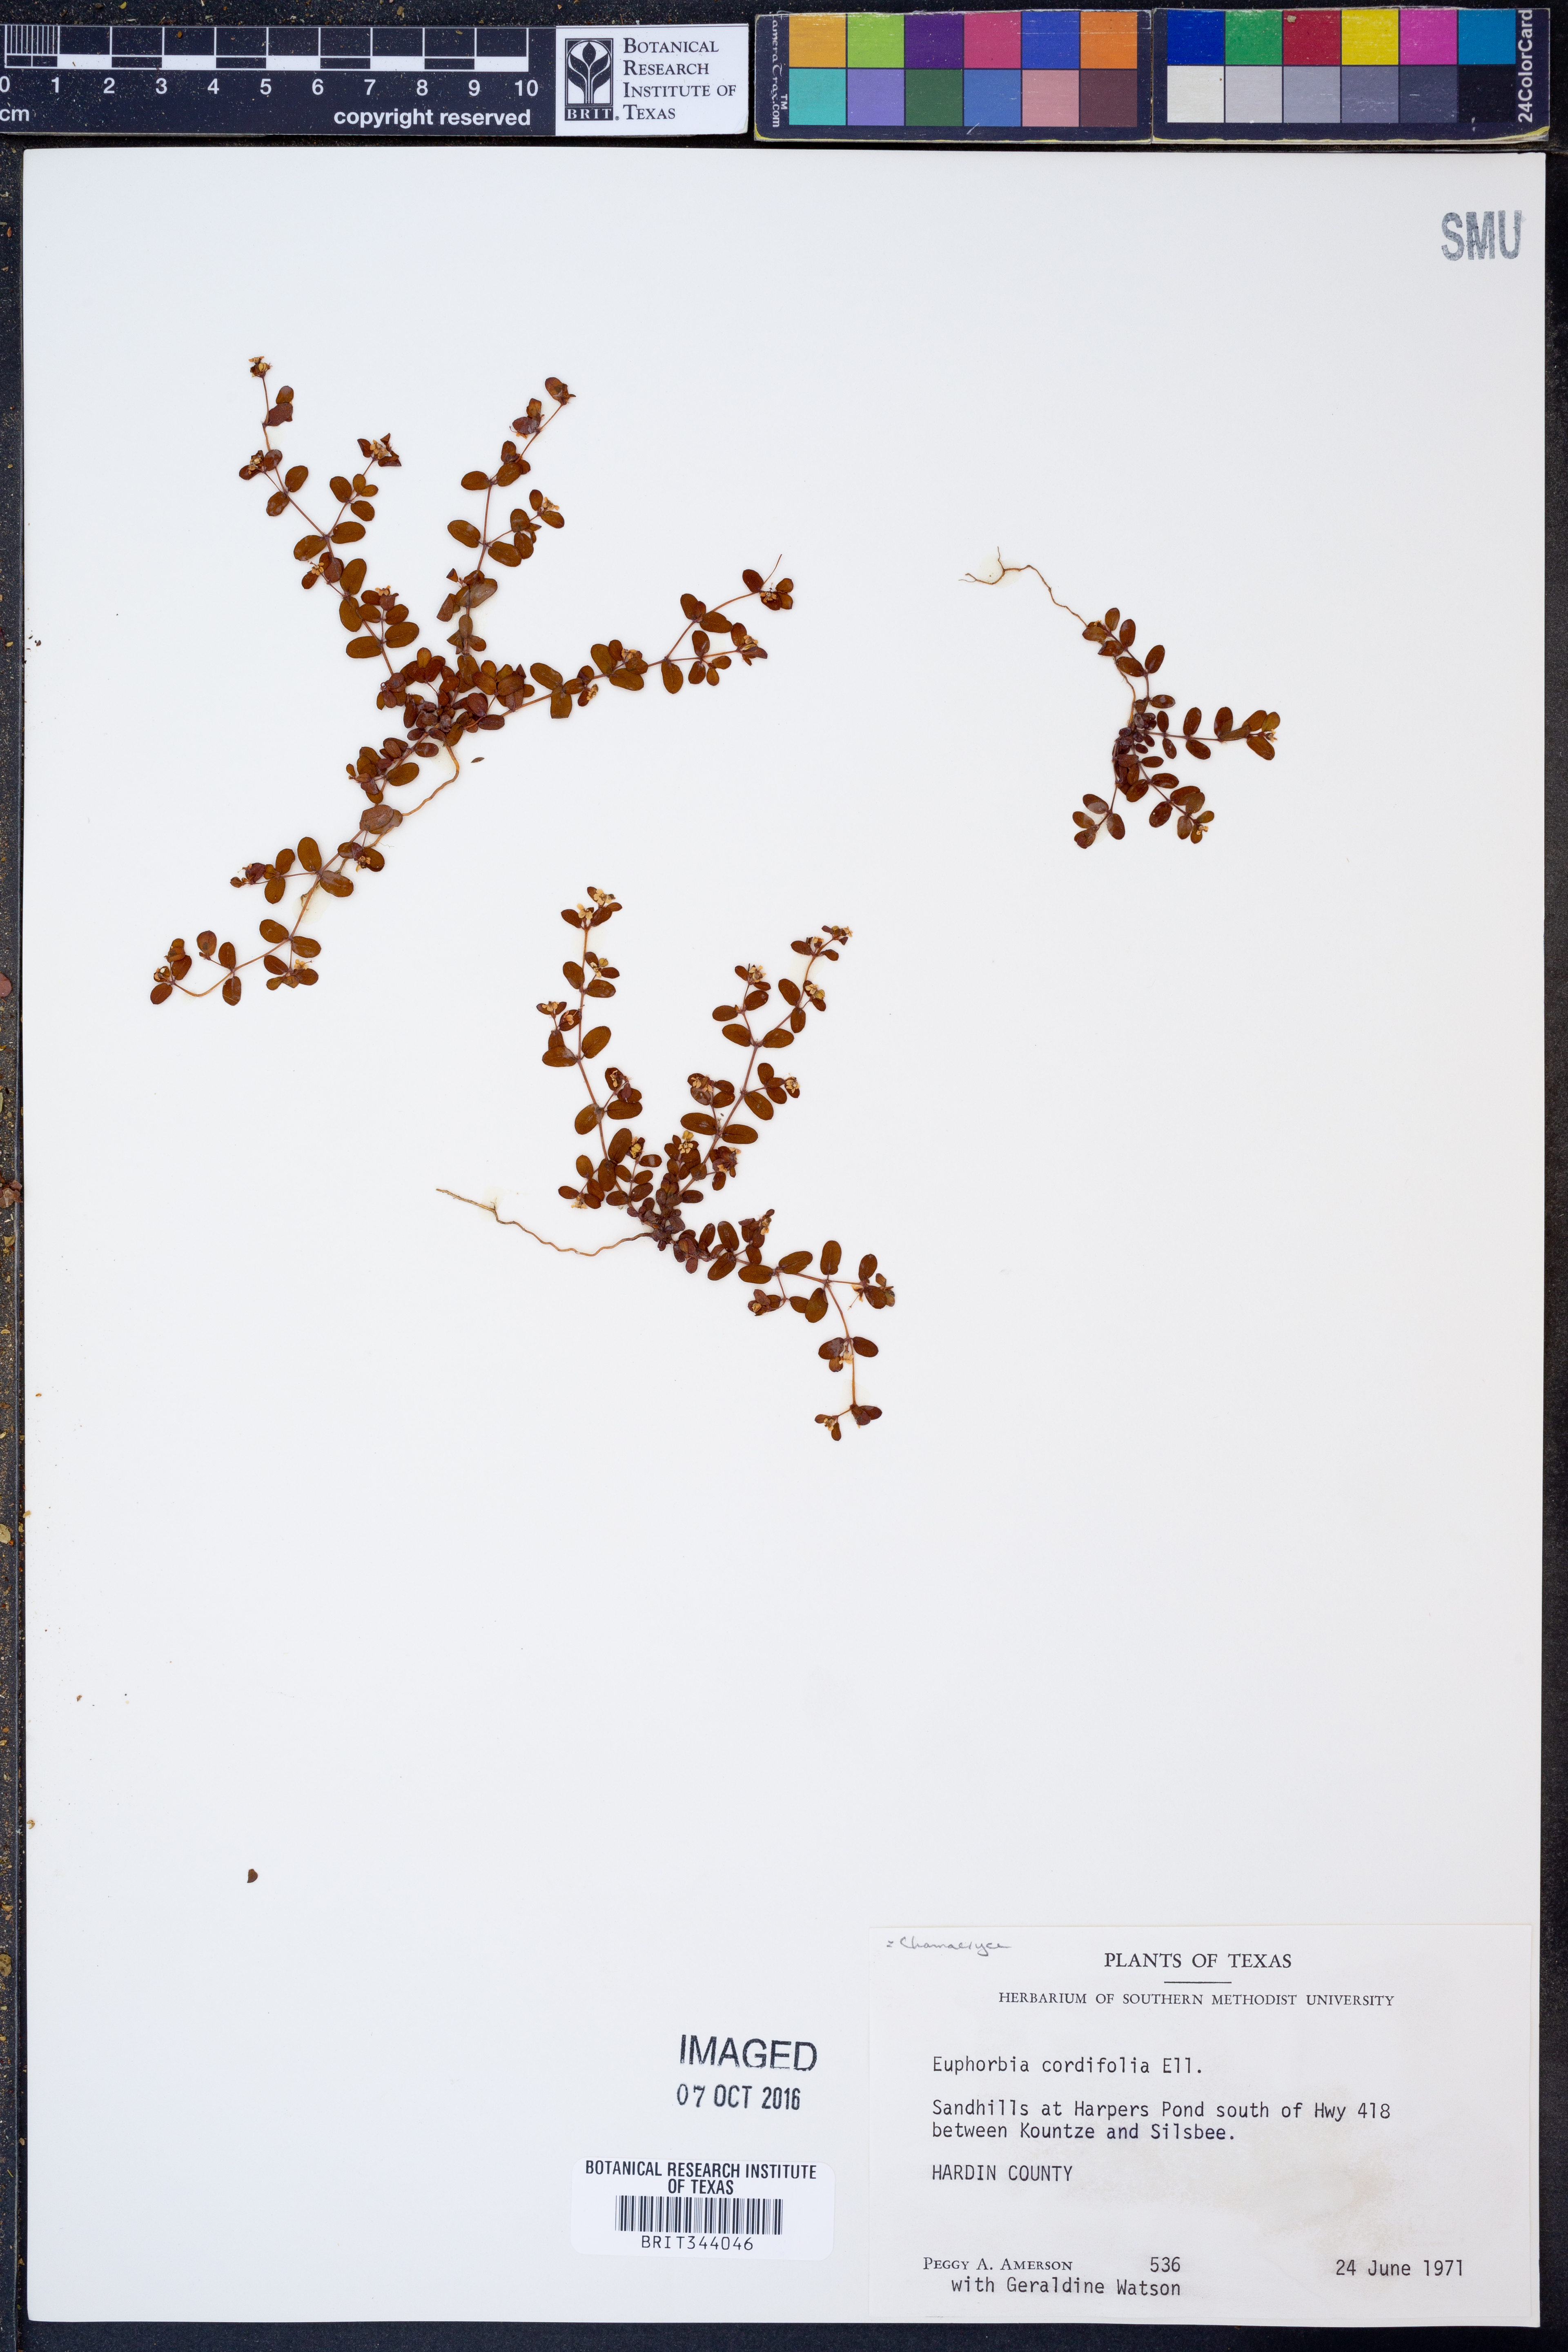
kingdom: Plantae
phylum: Tracheophyta
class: Magnoliopsida
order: Malpighiales
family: Euphorbiaceae
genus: Euphorbia
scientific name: Euphorbia cordifolia
